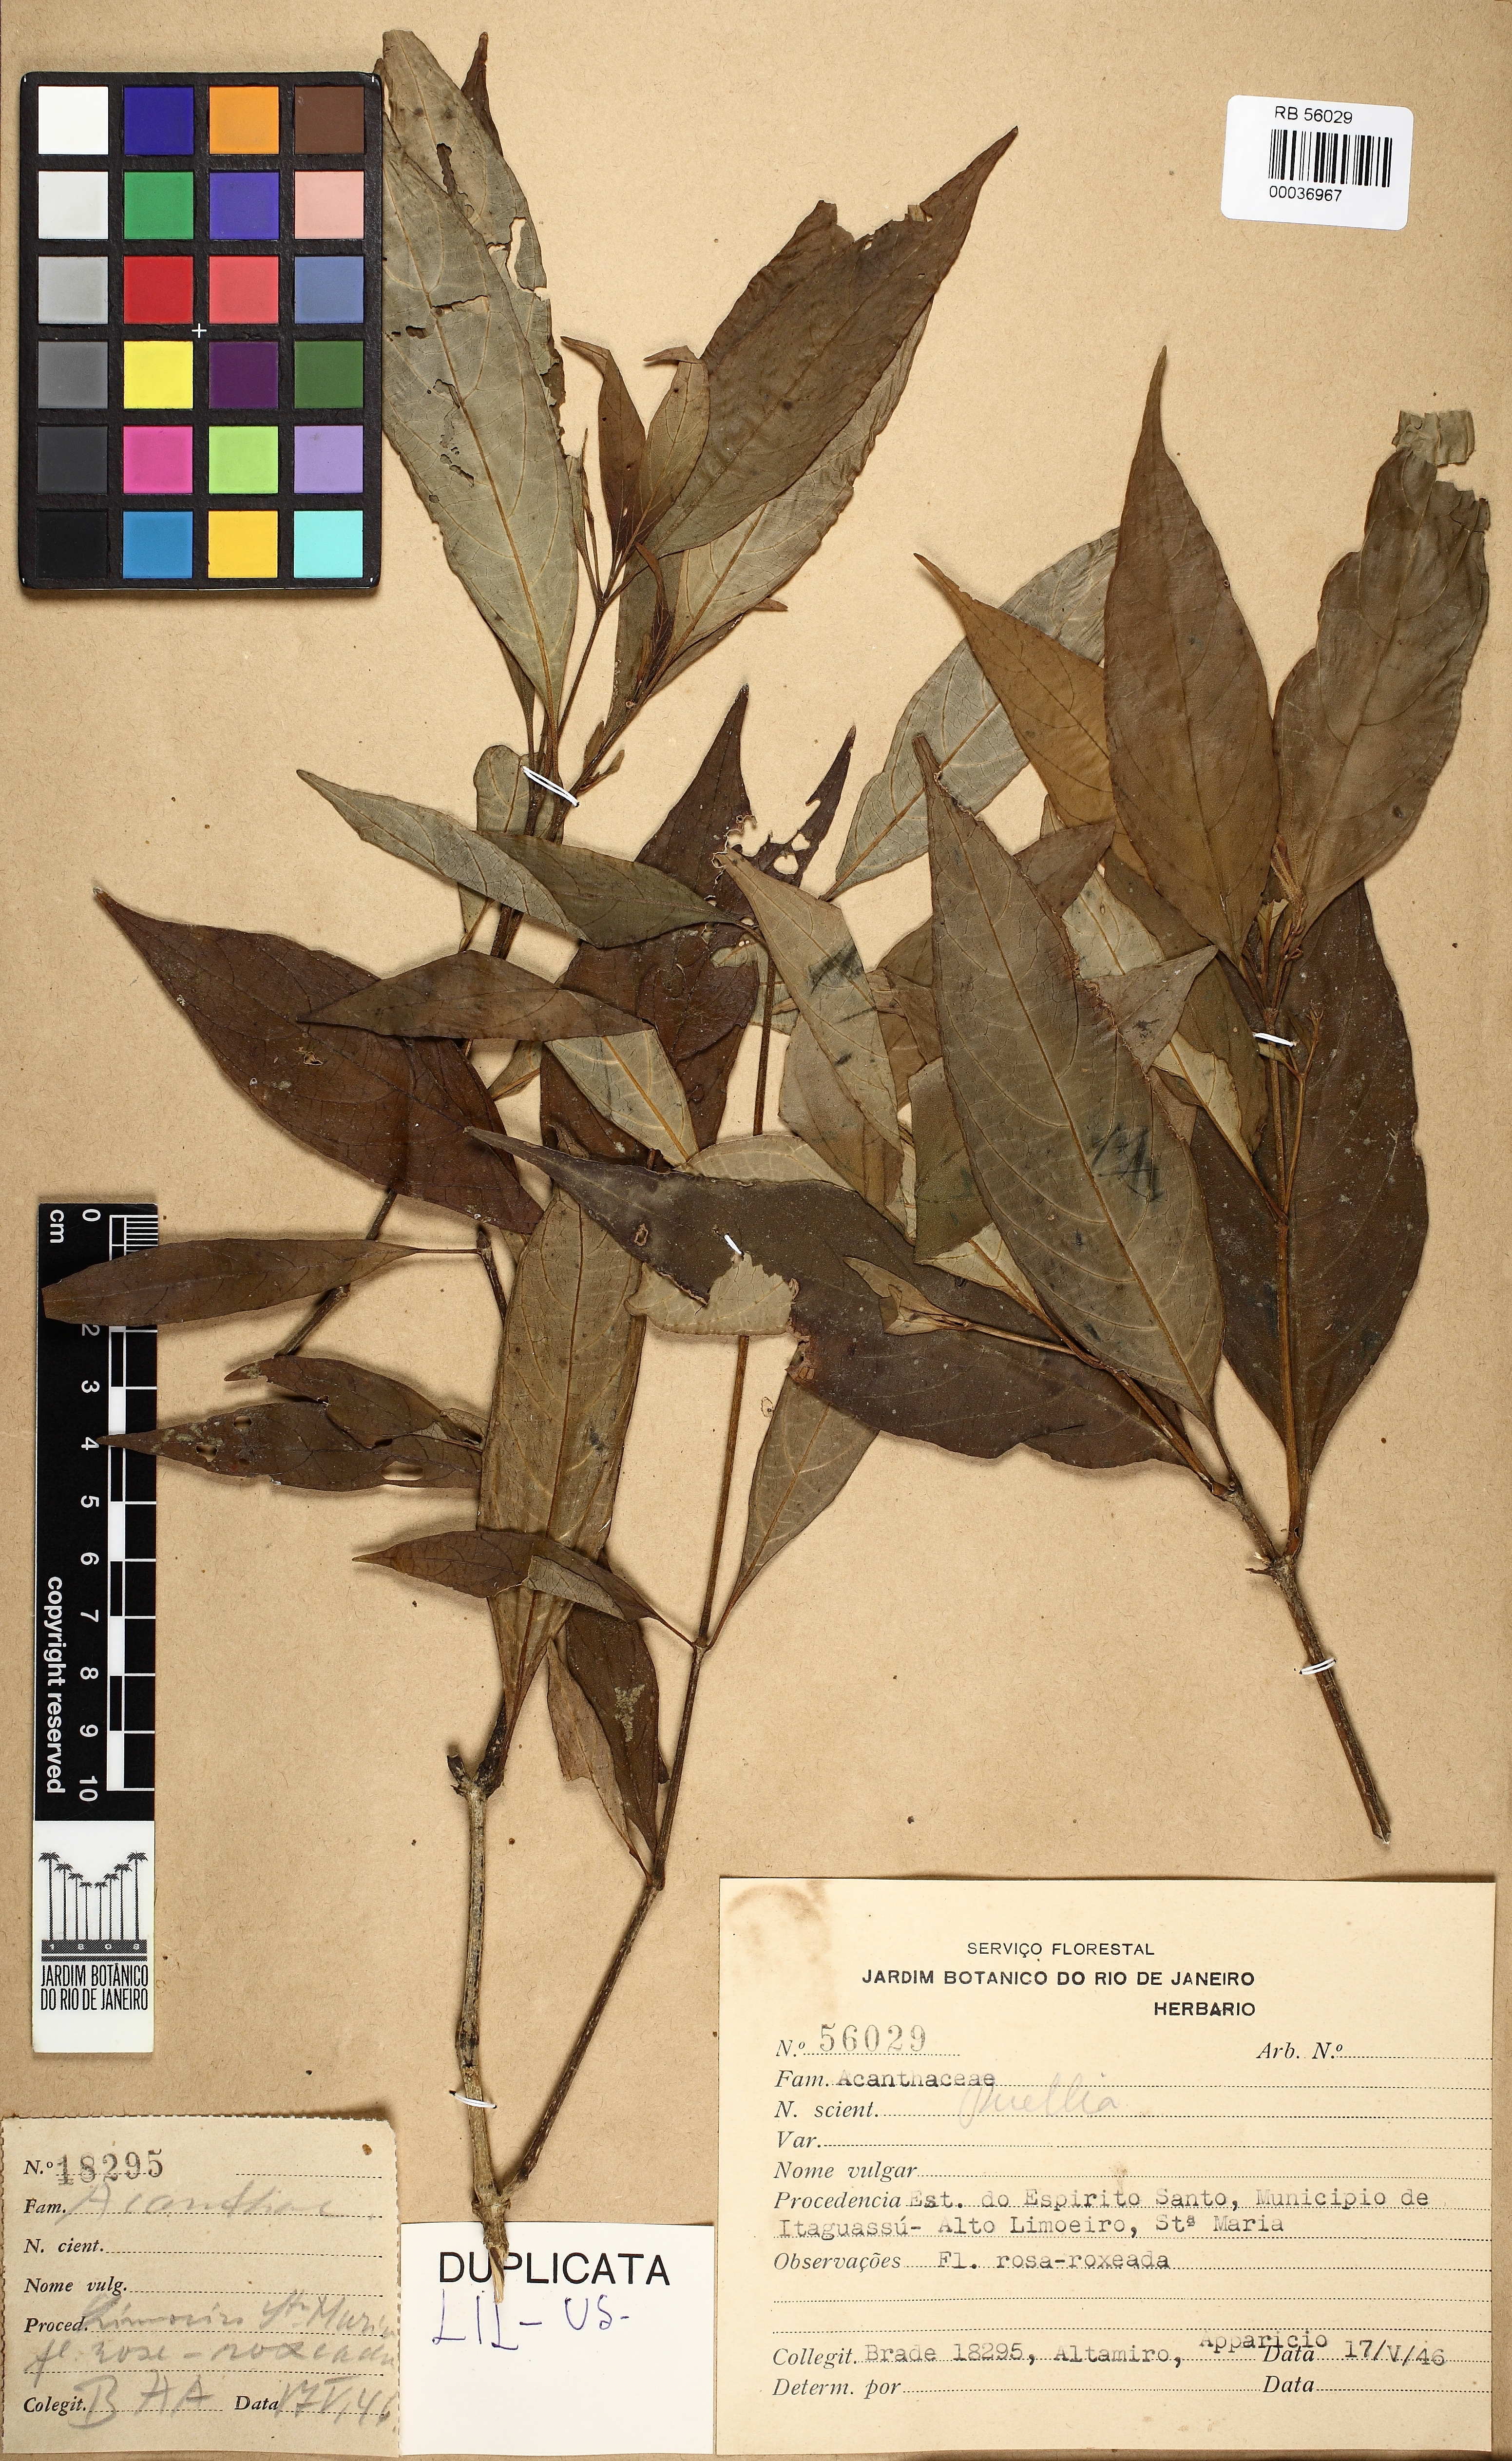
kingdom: Plantae
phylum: Tracheophyta
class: Magnoliopsida
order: Lamiales
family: Acanthaceae
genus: Ruellia
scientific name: Ruellia
